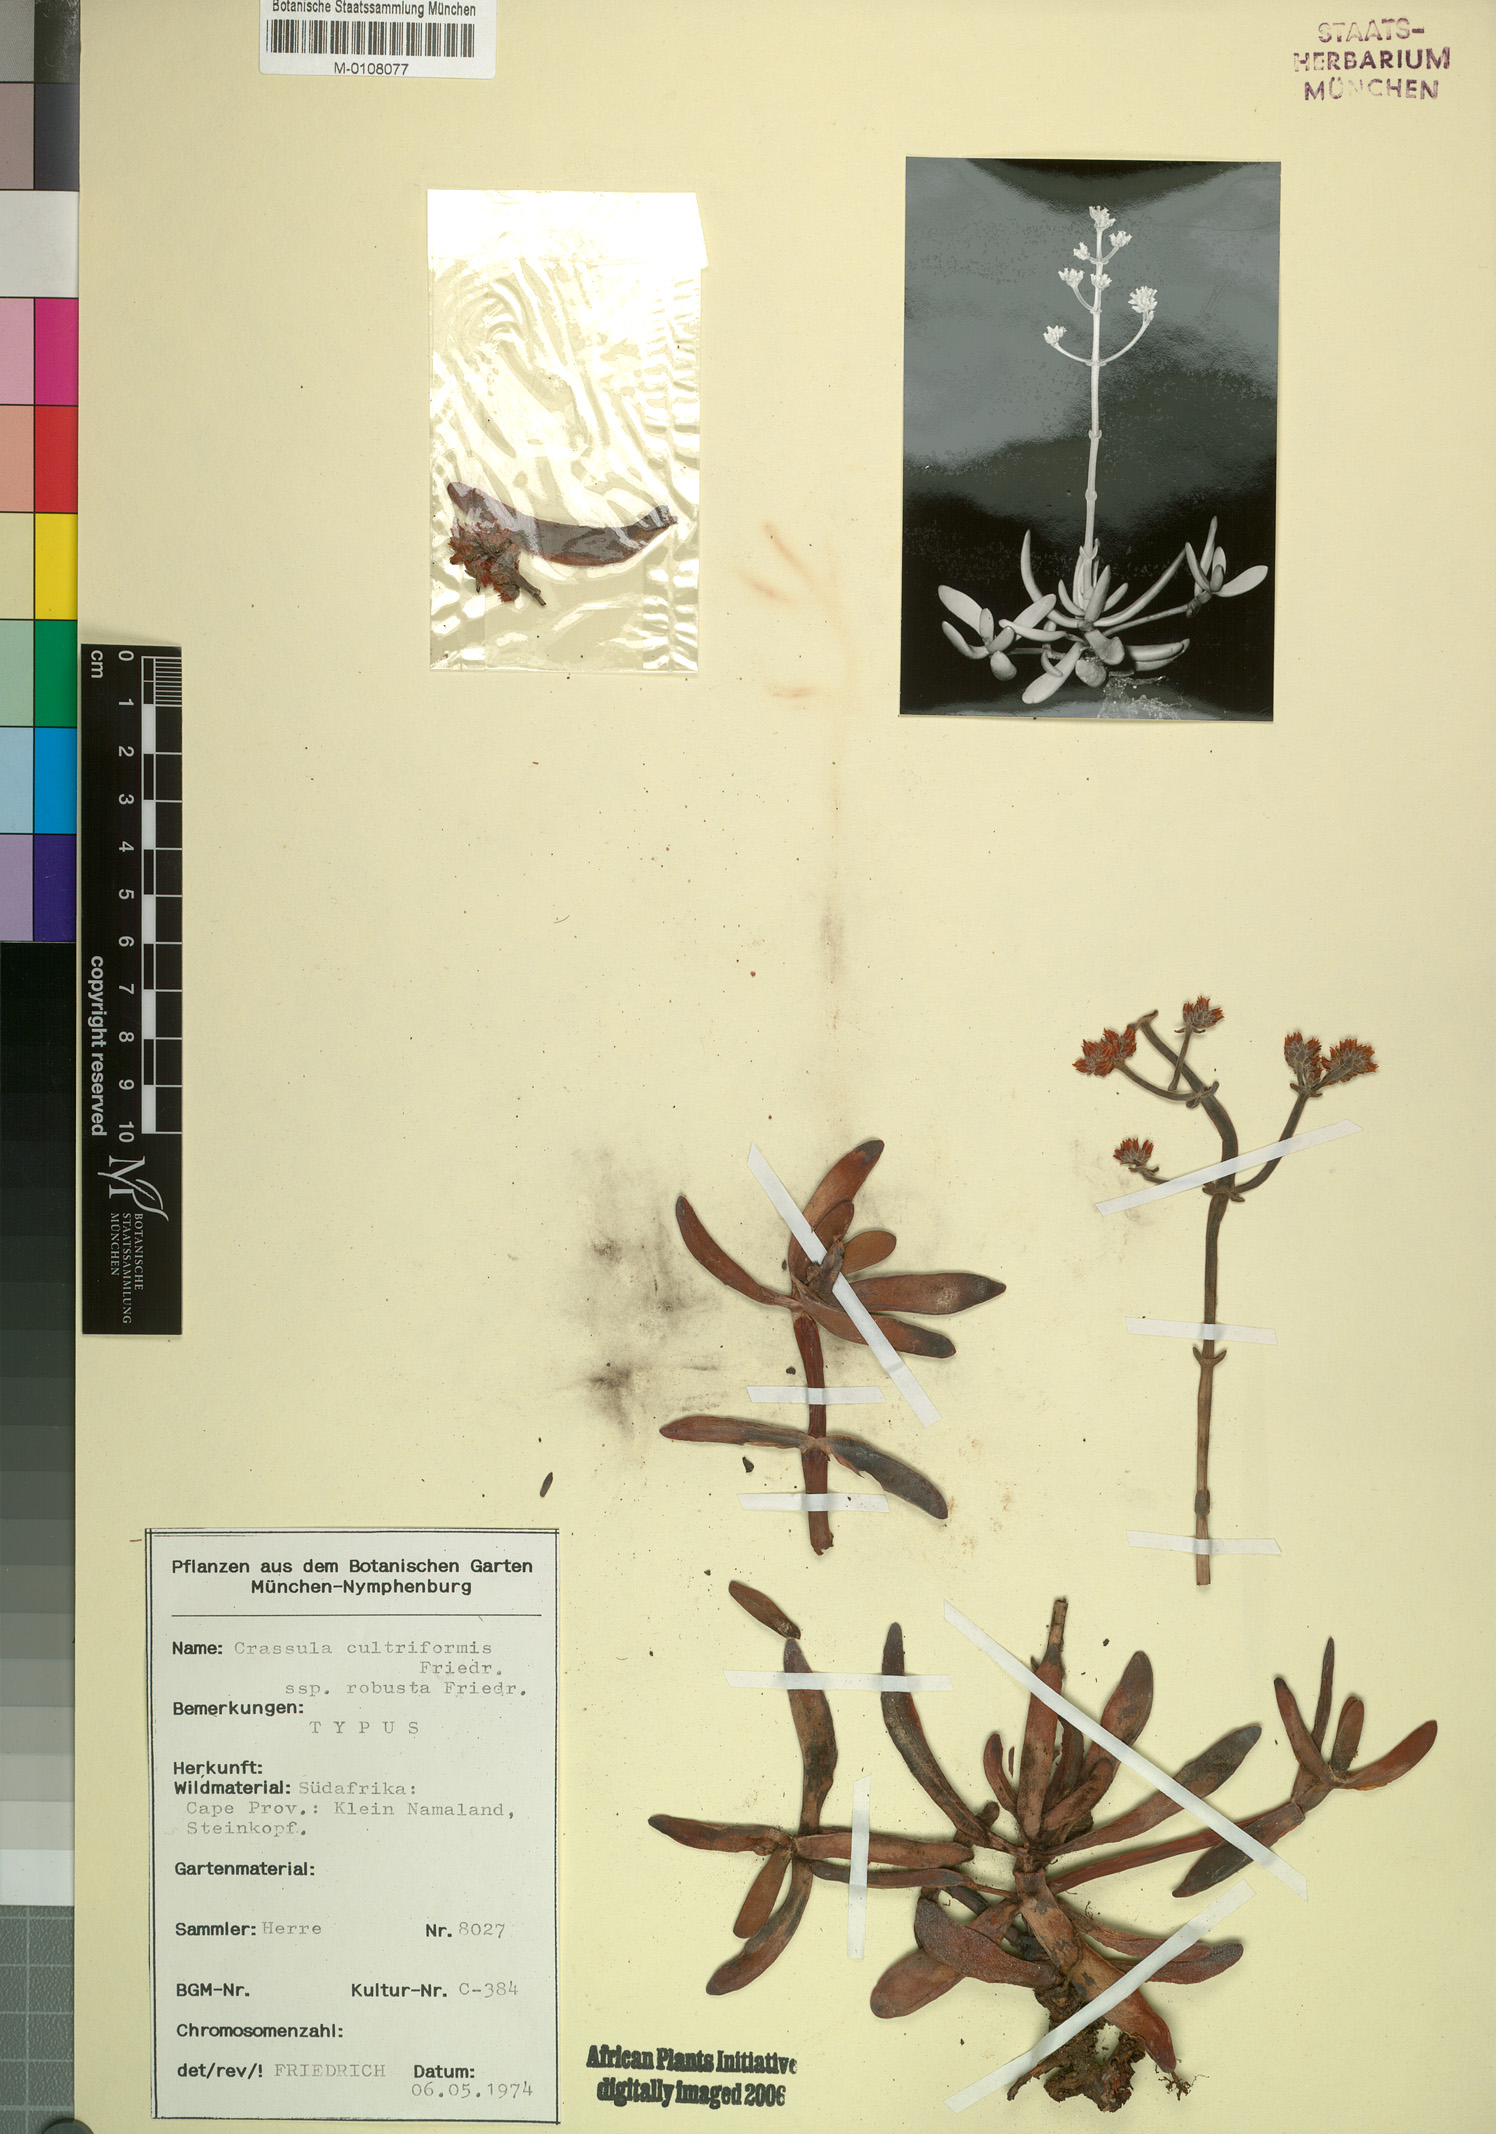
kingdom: Plantae
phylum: Tracheophyta
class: Magnoliopsida
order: Saxifragales
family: Crassulaceae
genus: Crassula
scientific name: Crassula atropurpurea
